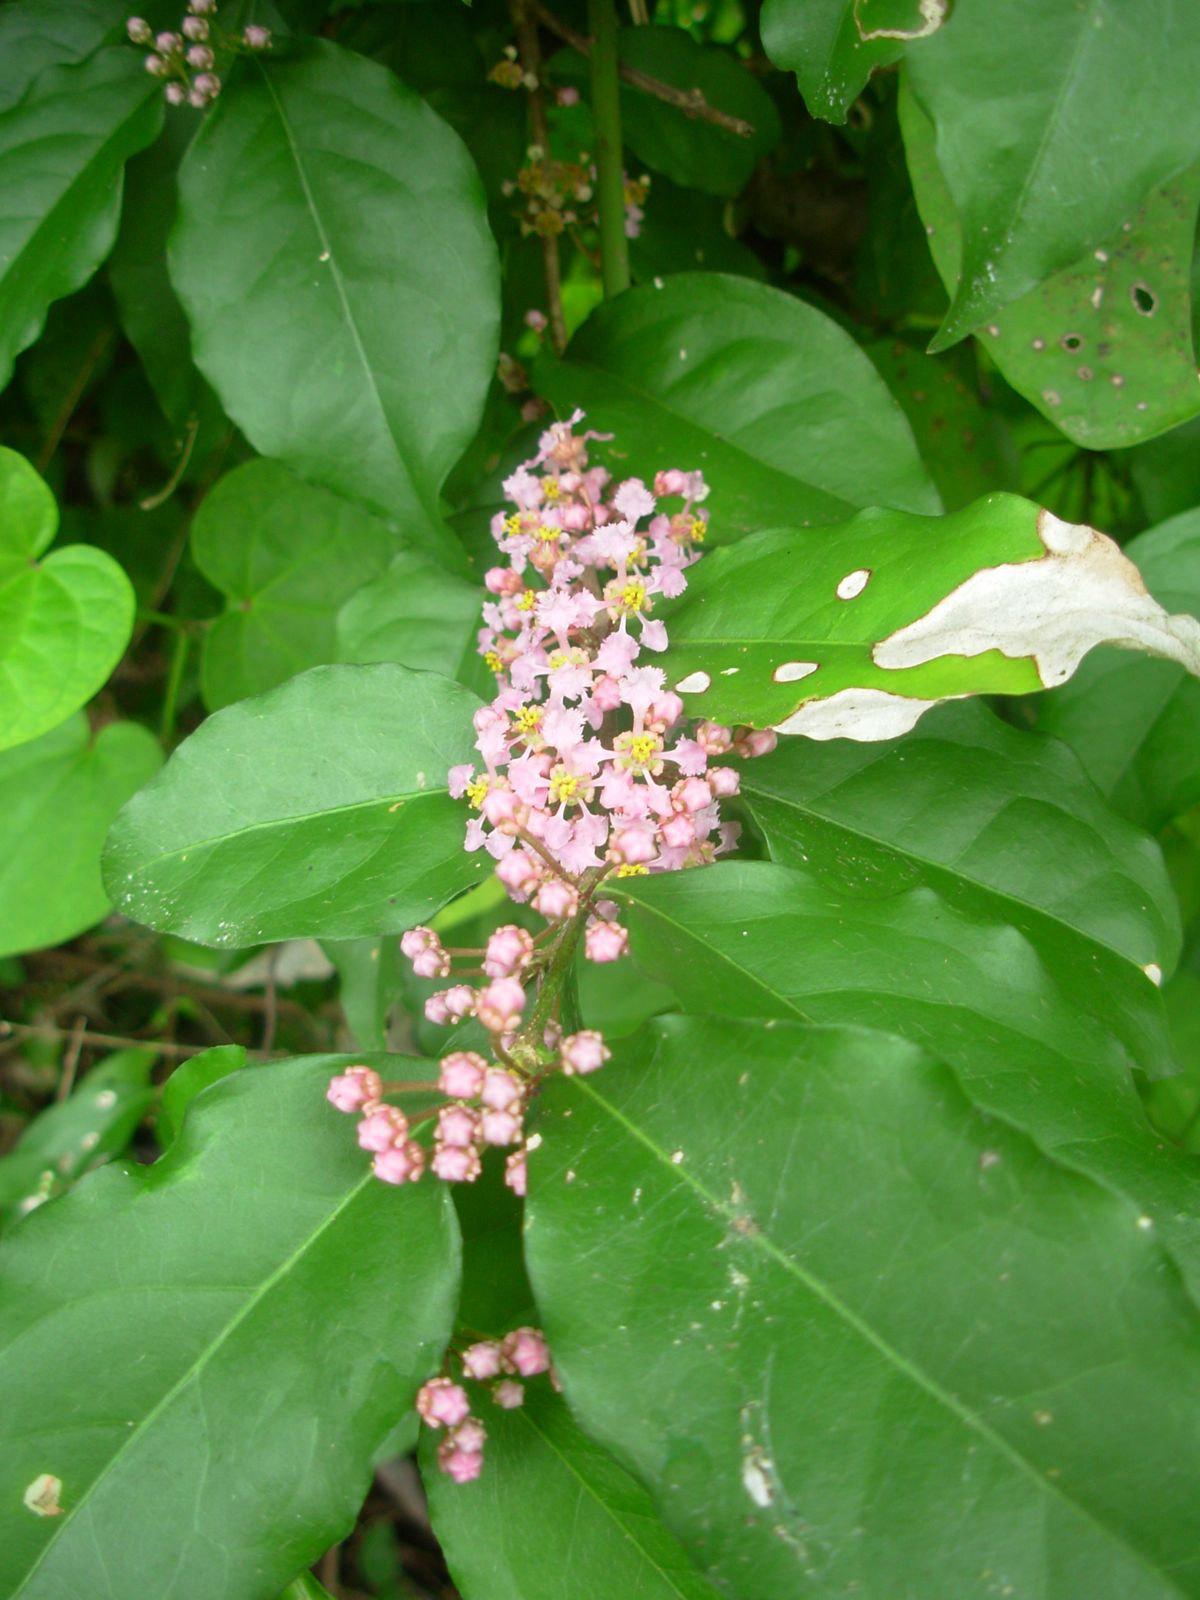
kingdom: Plantae
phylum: Tracheophyta
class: Magnoliopsida
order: Malpighiales
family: Malpighiaceae
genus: Malpighia
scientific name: Malpighia glabra
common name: Barbados cherry
